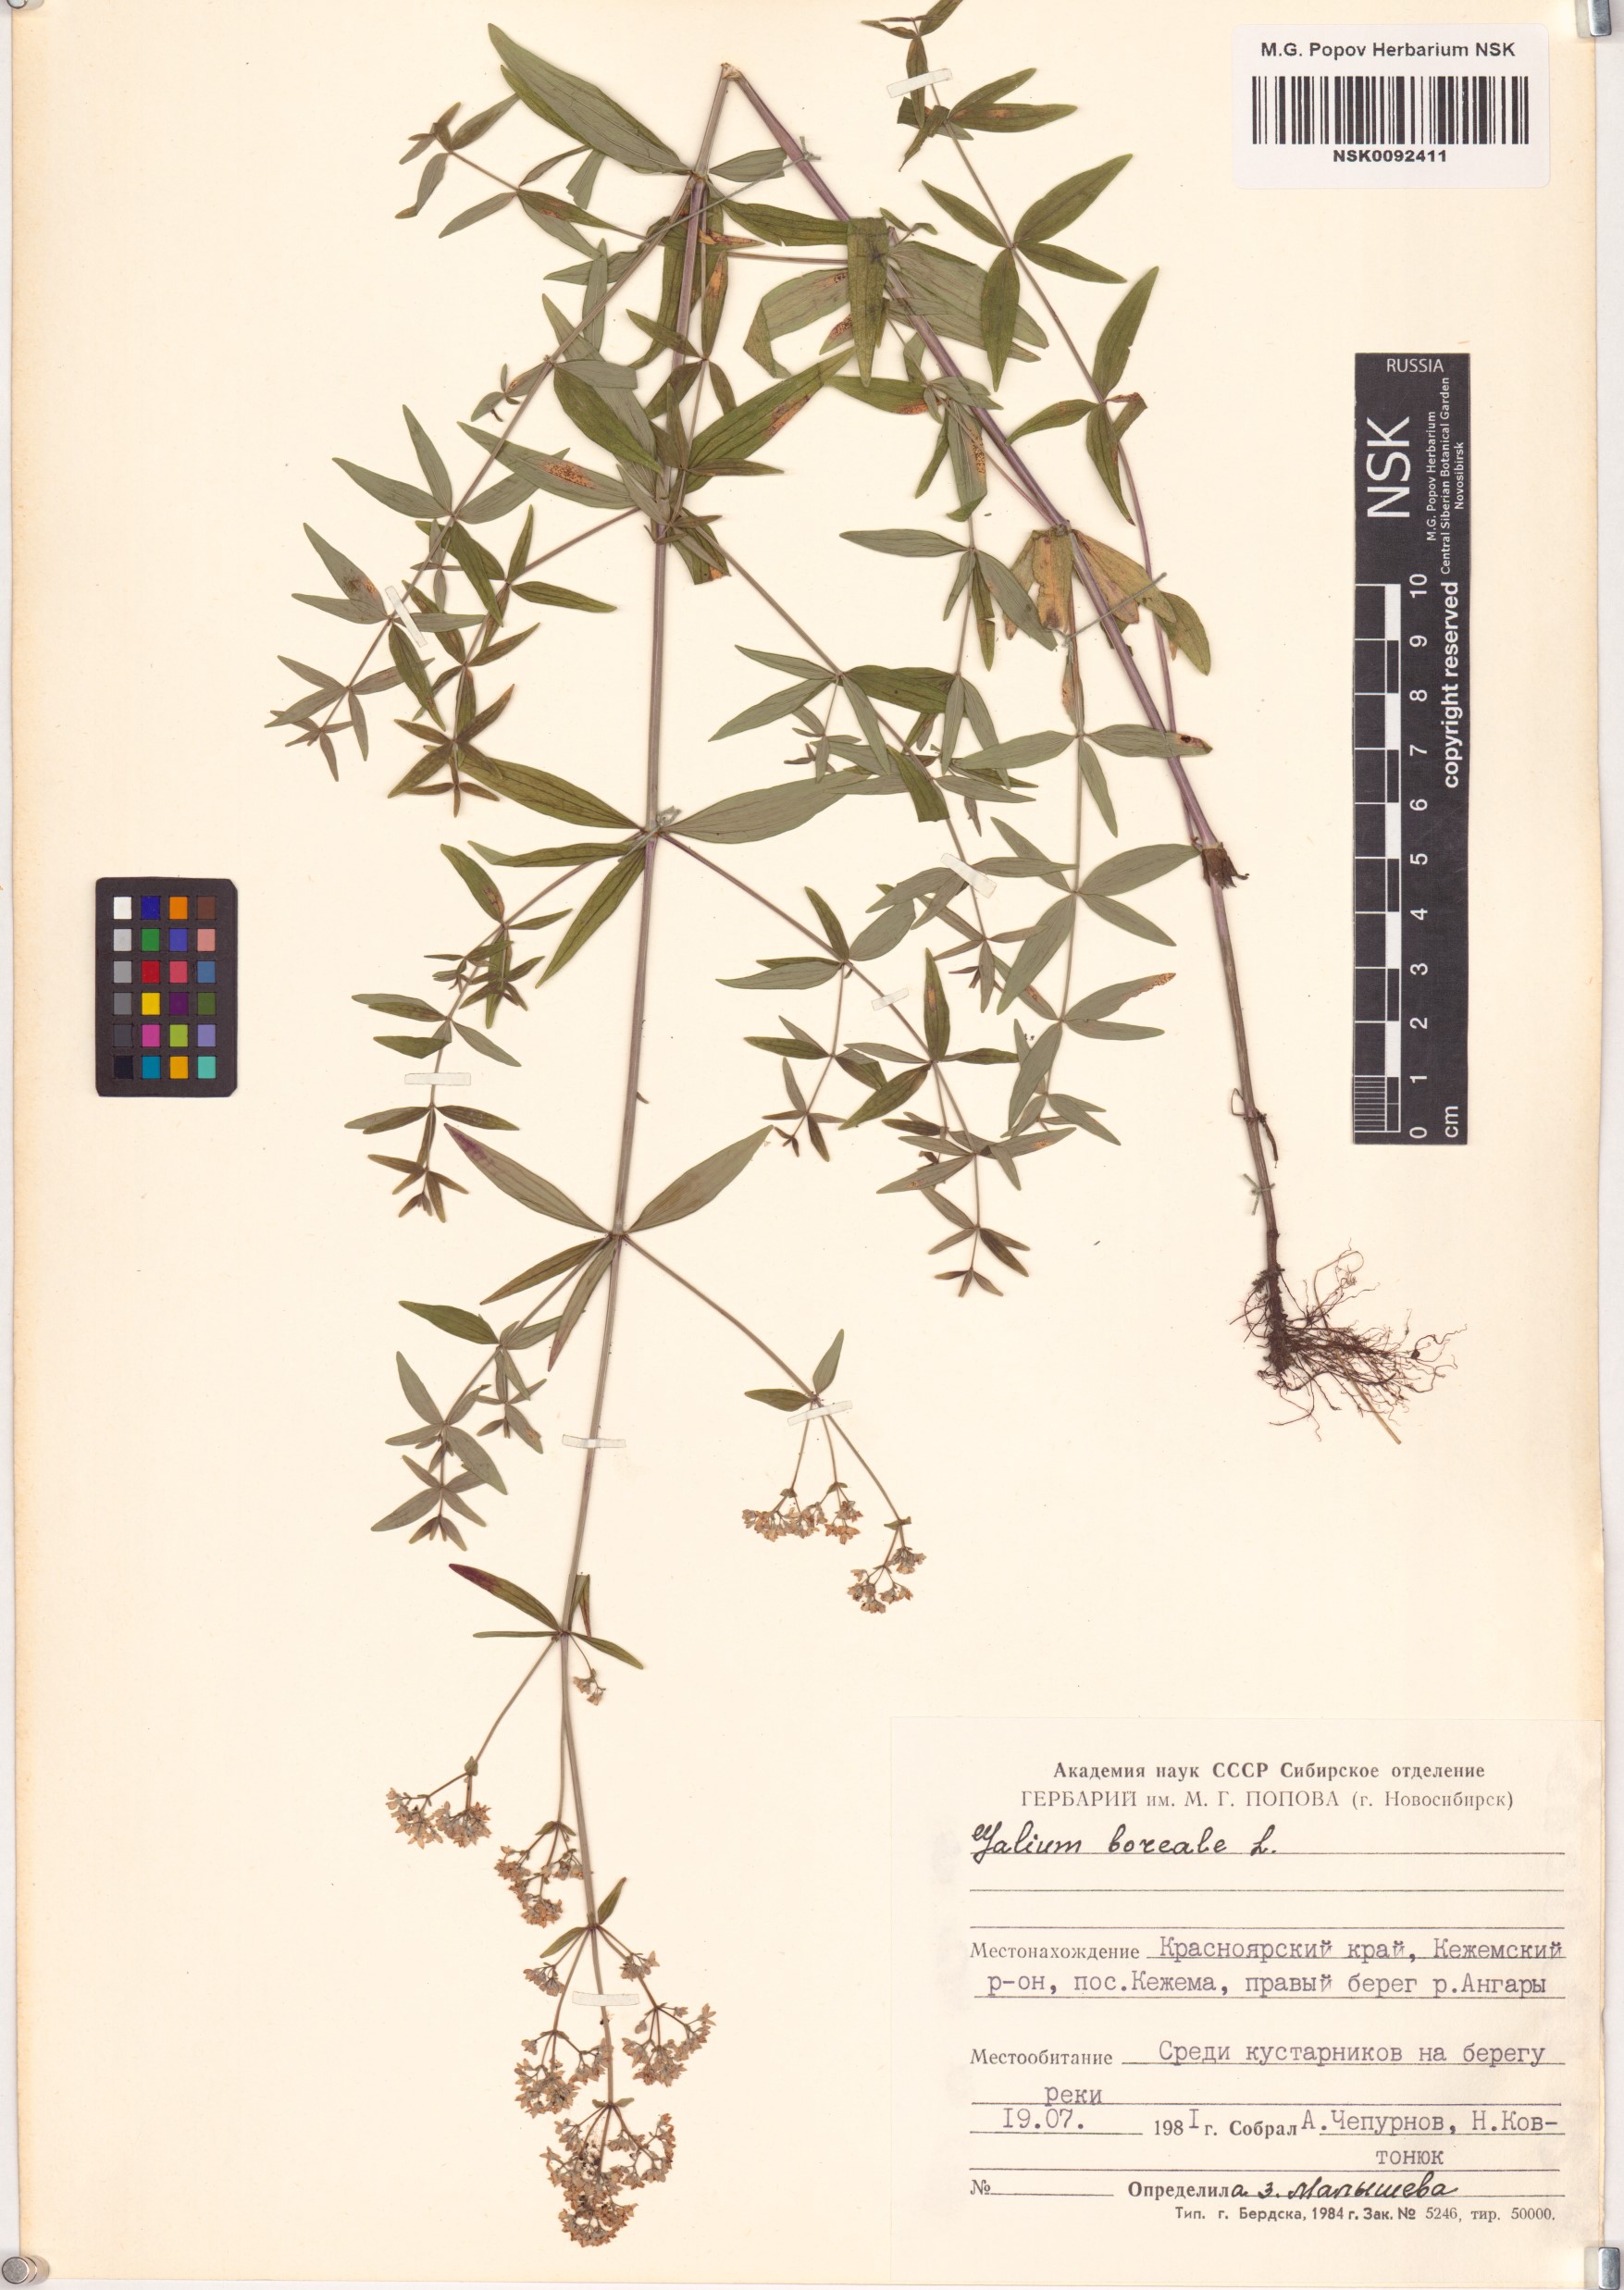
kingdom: Plantae
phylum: Tracheophyta
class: Magnoliopsida
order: Gentianales
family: Rubiaceae
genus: Galium
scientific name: Galium boreale
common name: Northern bedstraw
